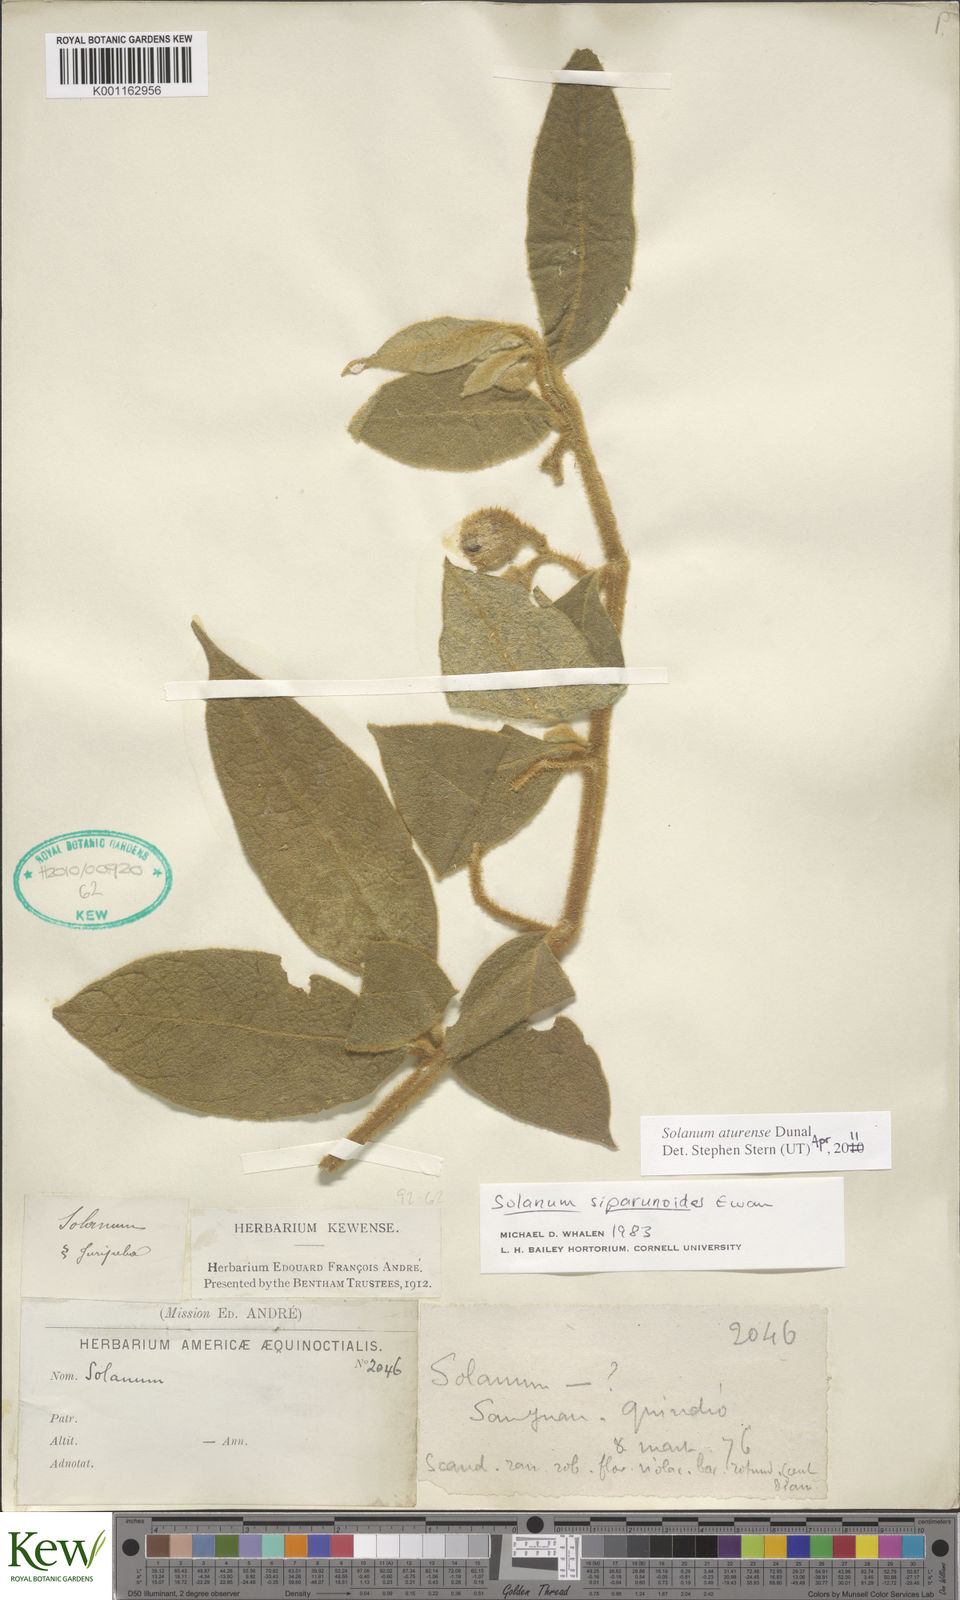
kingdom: Plantae
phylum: Tracheophyta
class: Magnoliopsida
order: Solanales
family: Solanaceae
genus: Solanum
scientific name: Solanum aturense
